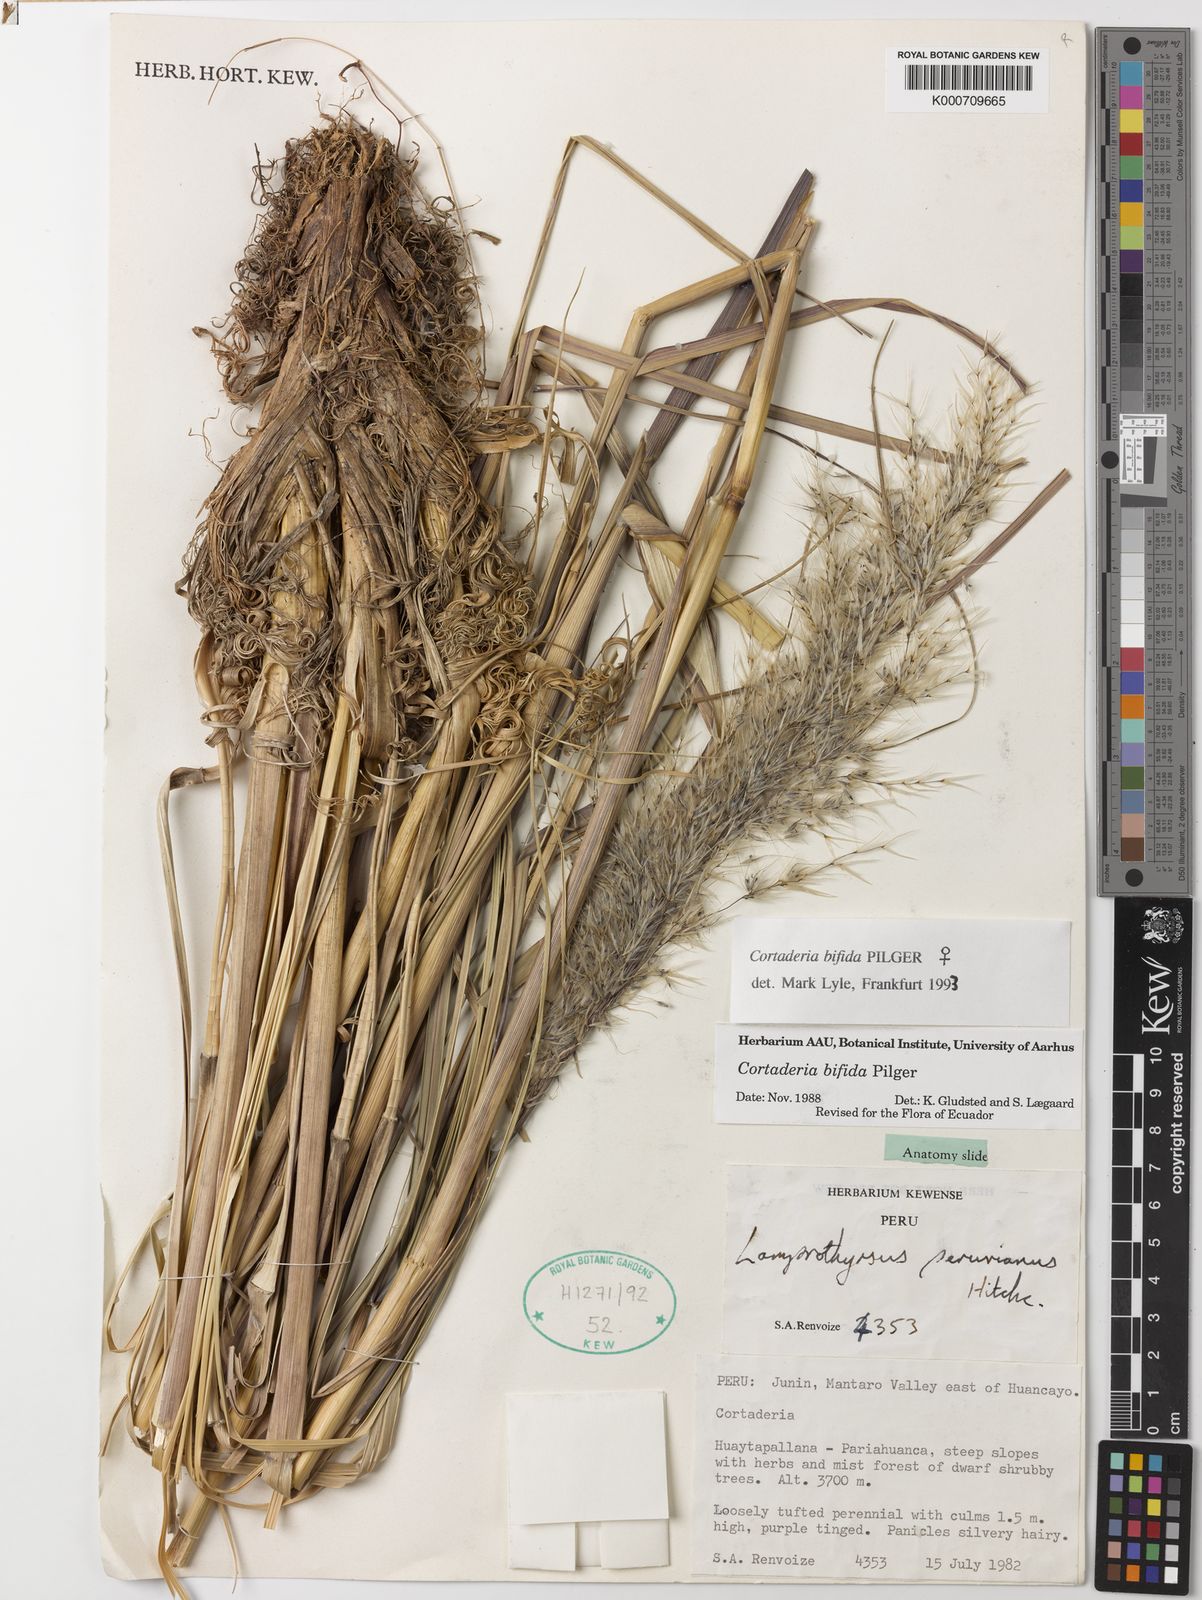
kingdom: Plantae
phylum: Tracheophyta
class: Liliopsida
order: Poales
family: Poaceae
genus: Cortaderia
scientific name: Cortaderia bifida
